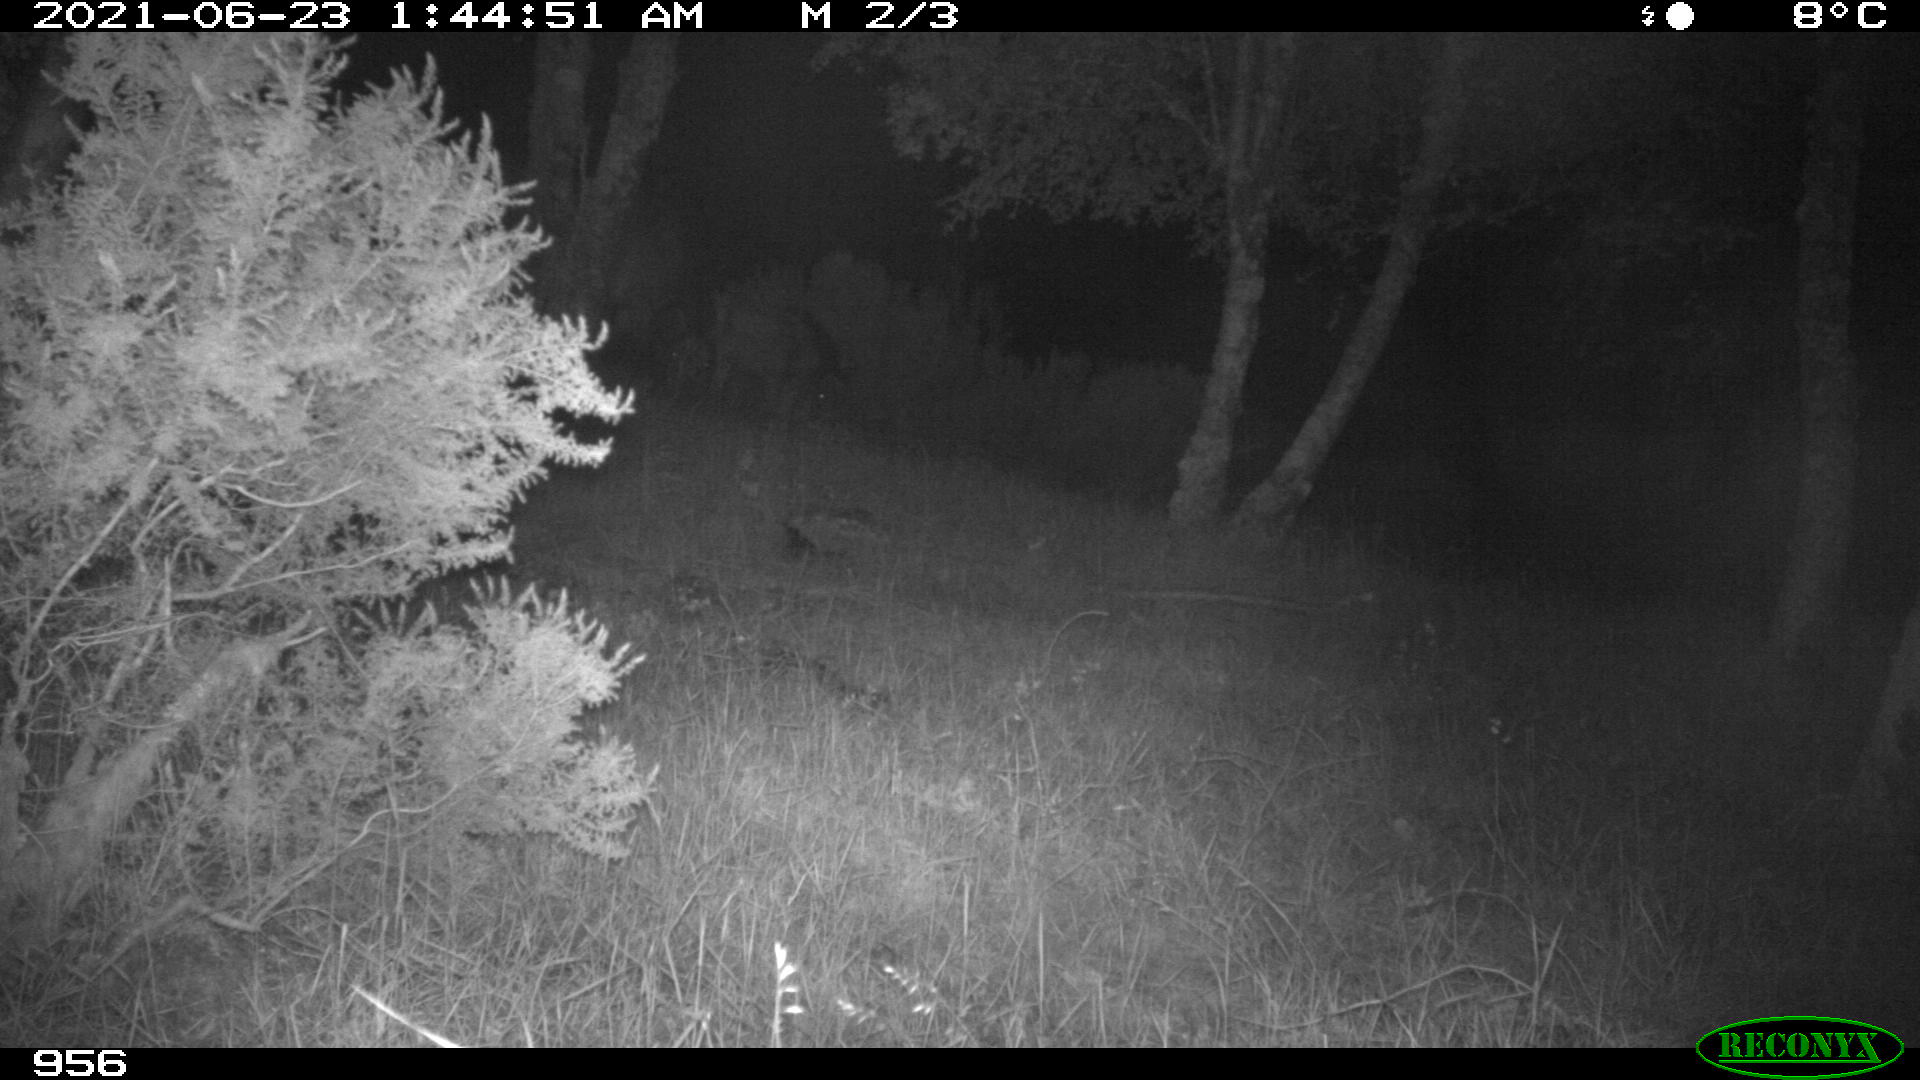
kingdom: Animalia
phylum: Chordata
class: Mammalia
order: Perissodactyla
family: Equidae
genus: Equus
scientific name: Equus caballus
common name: Horse
